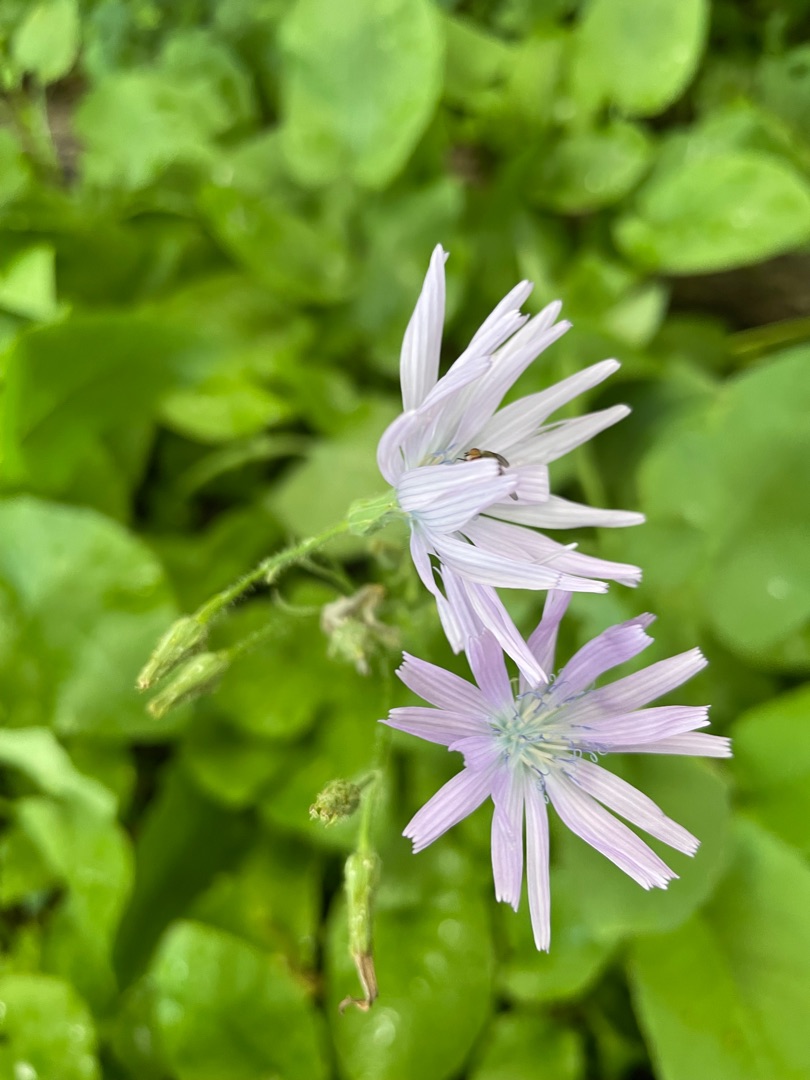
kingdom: Plantae
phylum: Tracheophyta
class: Magnoliopsida
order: Asterales
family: Asteraceae
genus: Lactuca
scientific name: Lactuca macrophylla
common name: Kæmpe-salat
